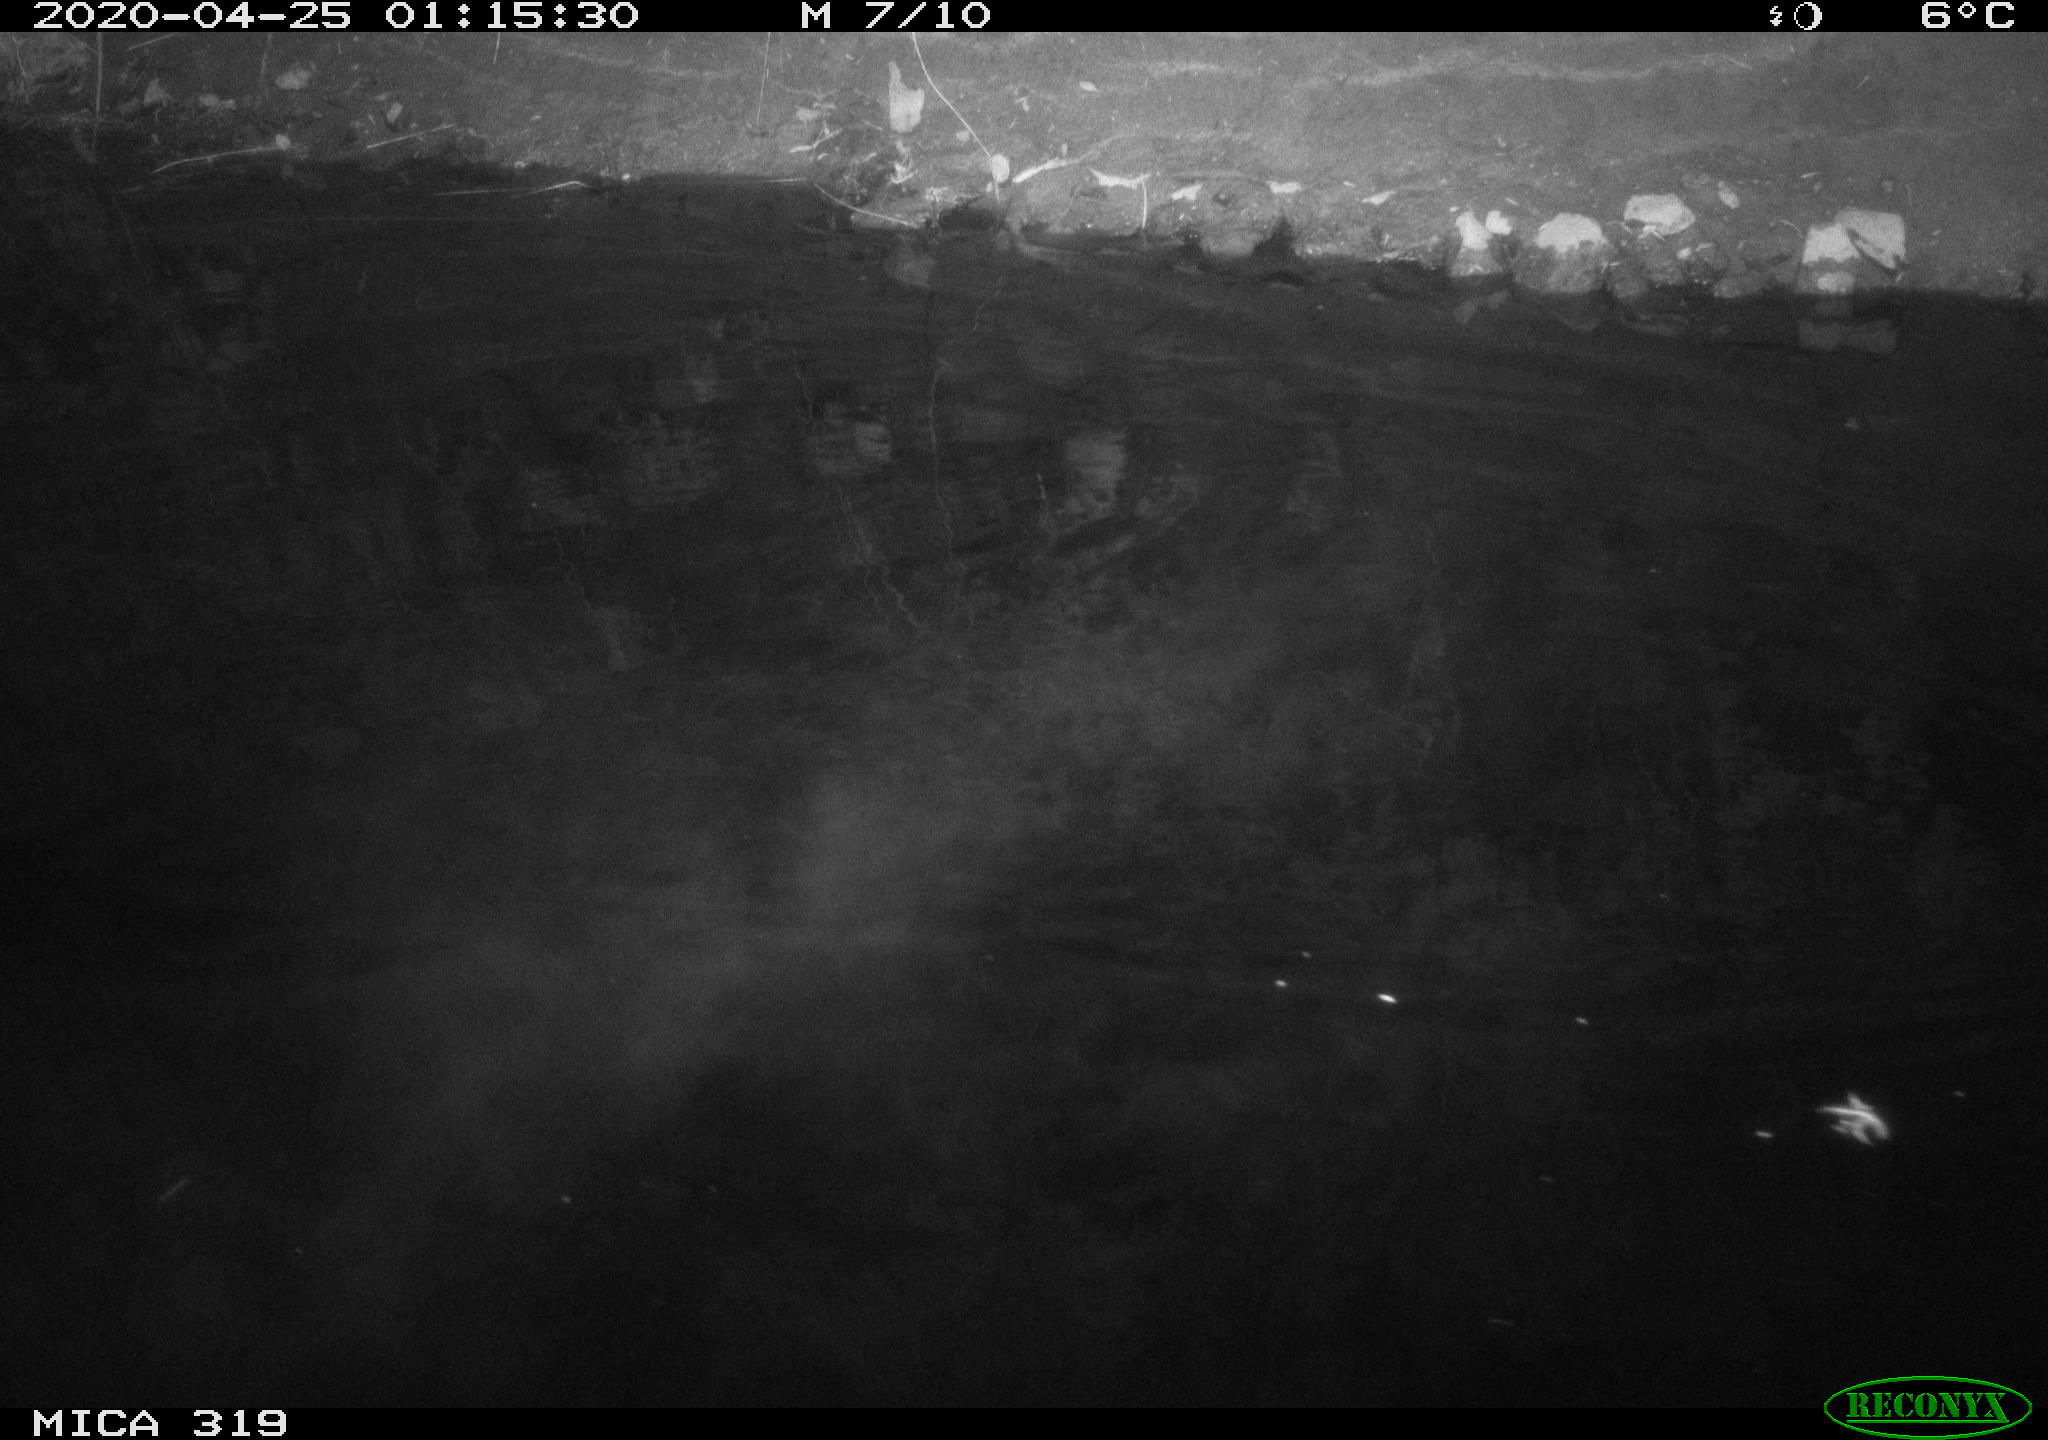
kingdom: Animalia
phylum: Chordata
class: Aves
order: Anseriformes
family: Anatidae
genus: Anas
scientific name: Anas platyrhynchos
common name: Mallard
